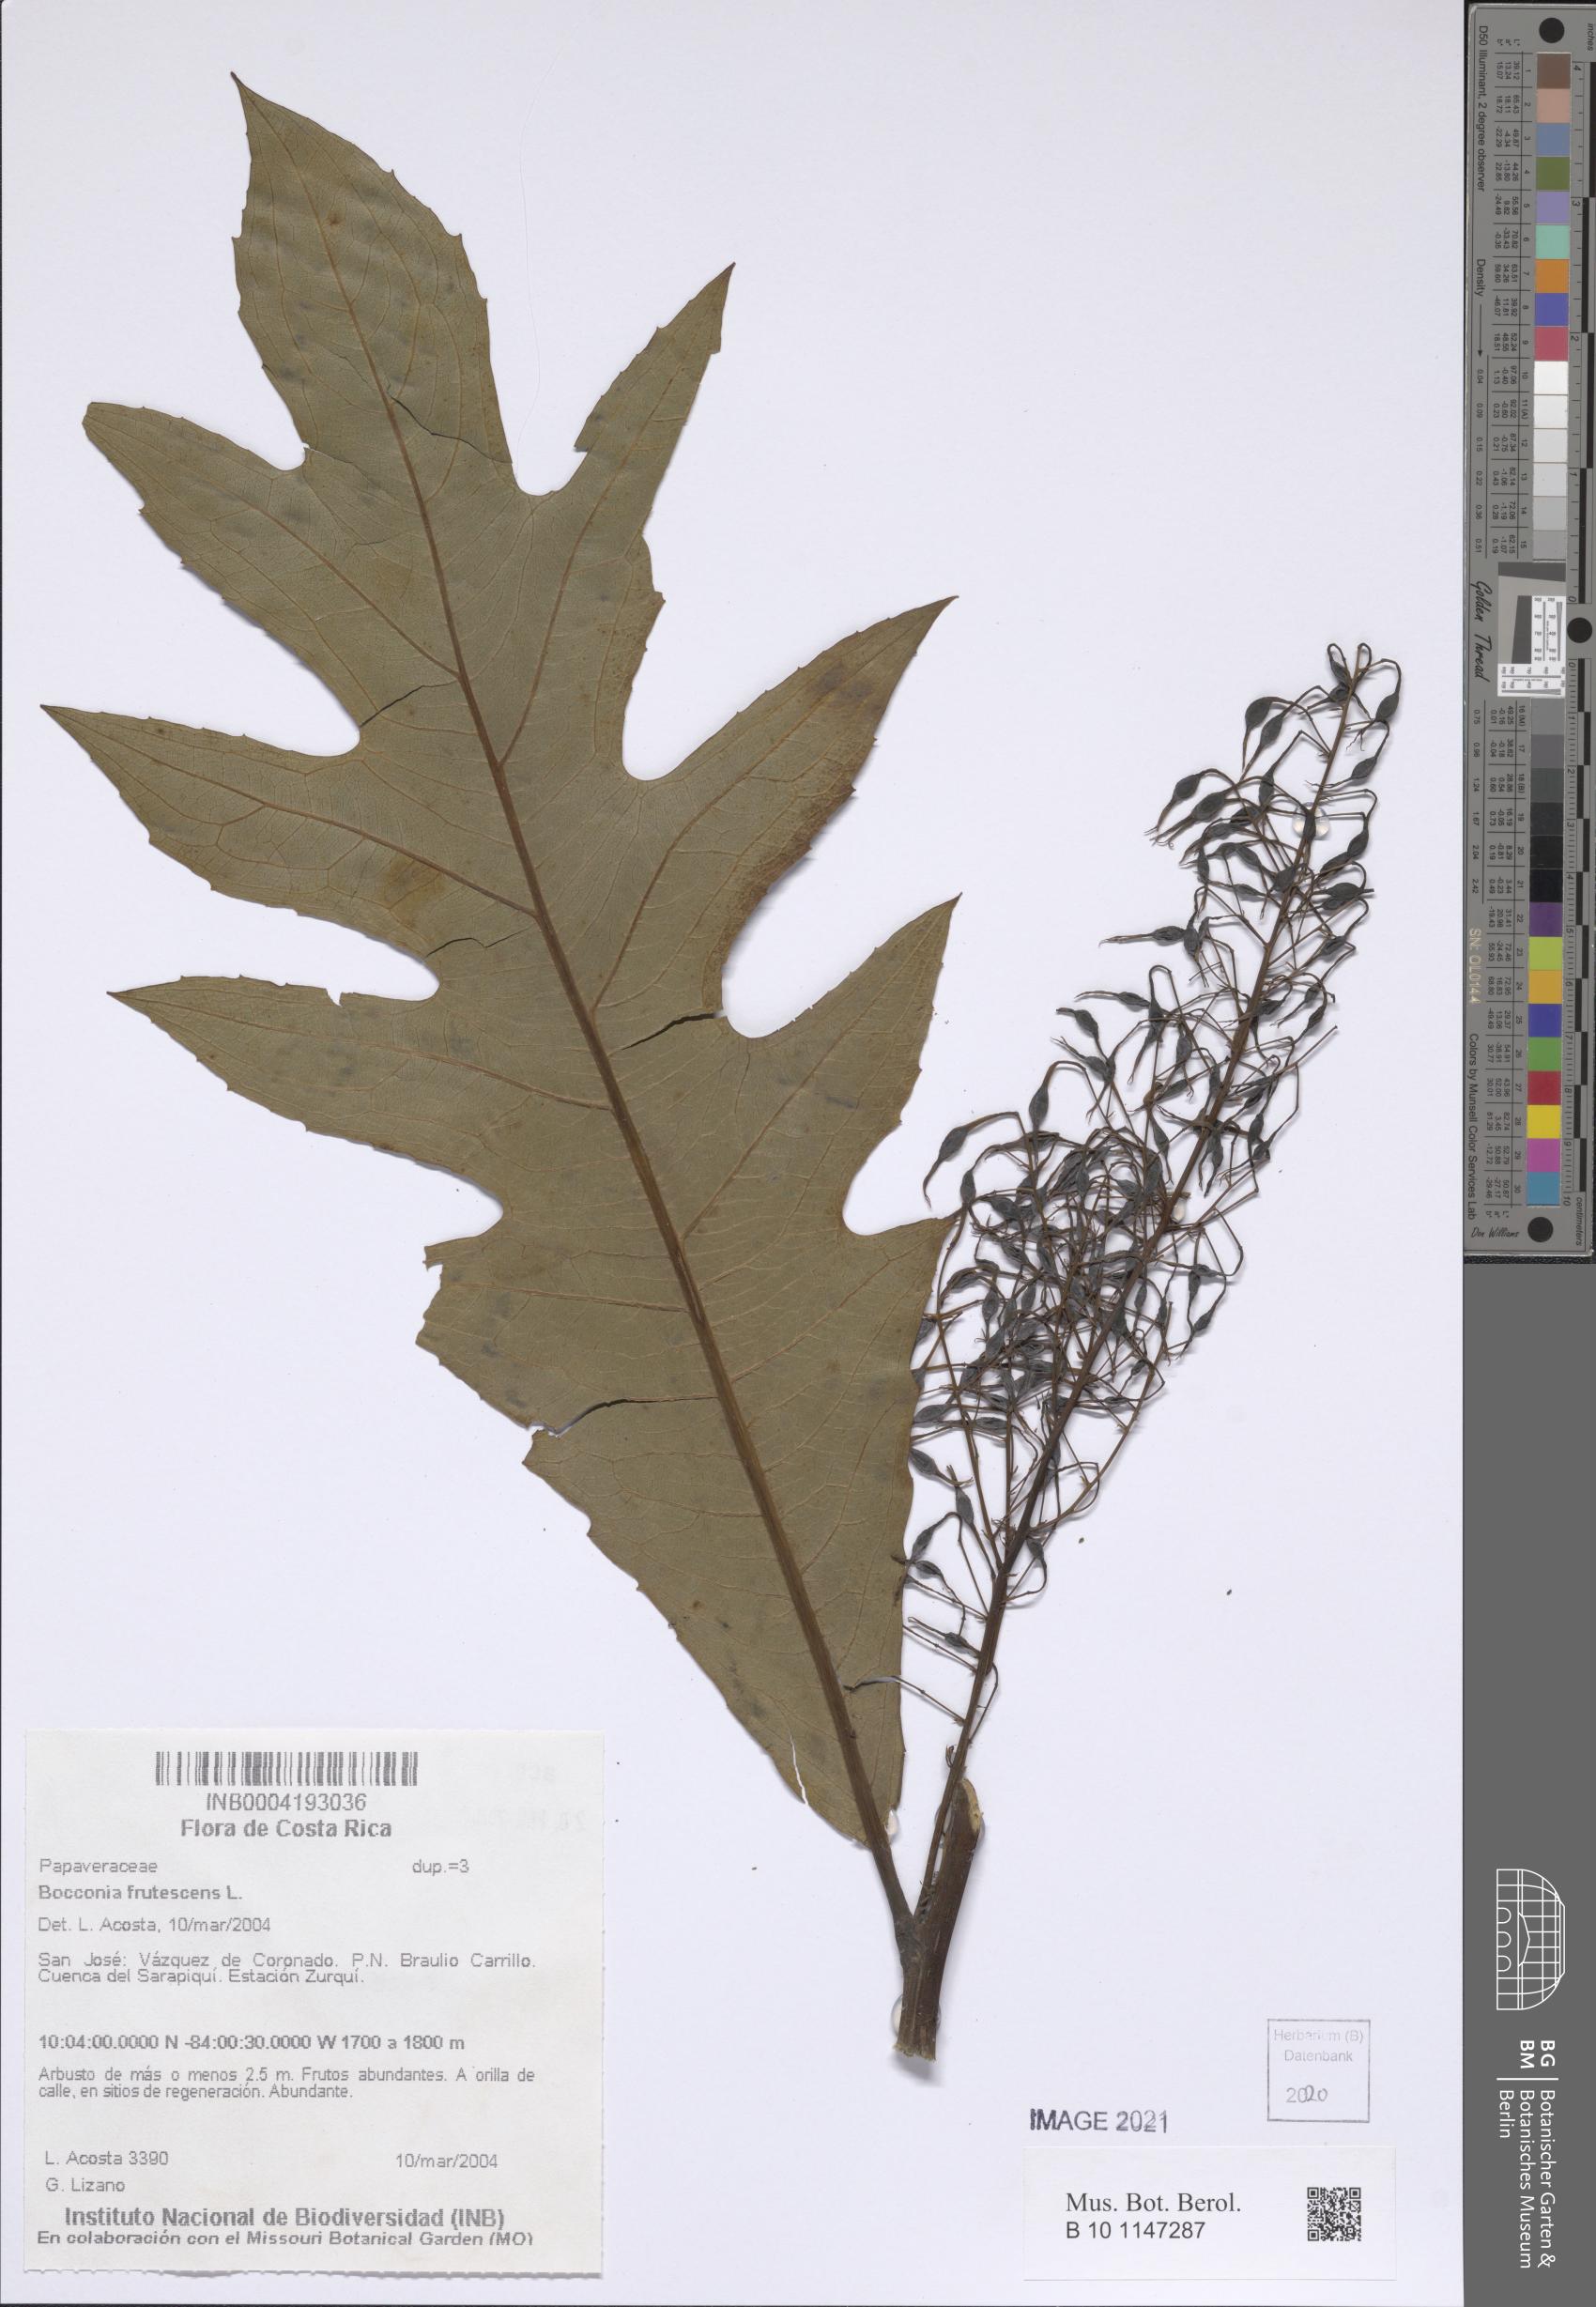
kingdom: Plantae
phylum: Tracheophyta
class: Magnoliopsida
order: Ranunculales
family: Papaveraceae
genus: Bocconia
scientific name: Bocconia frutescens
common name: Tree poppy
